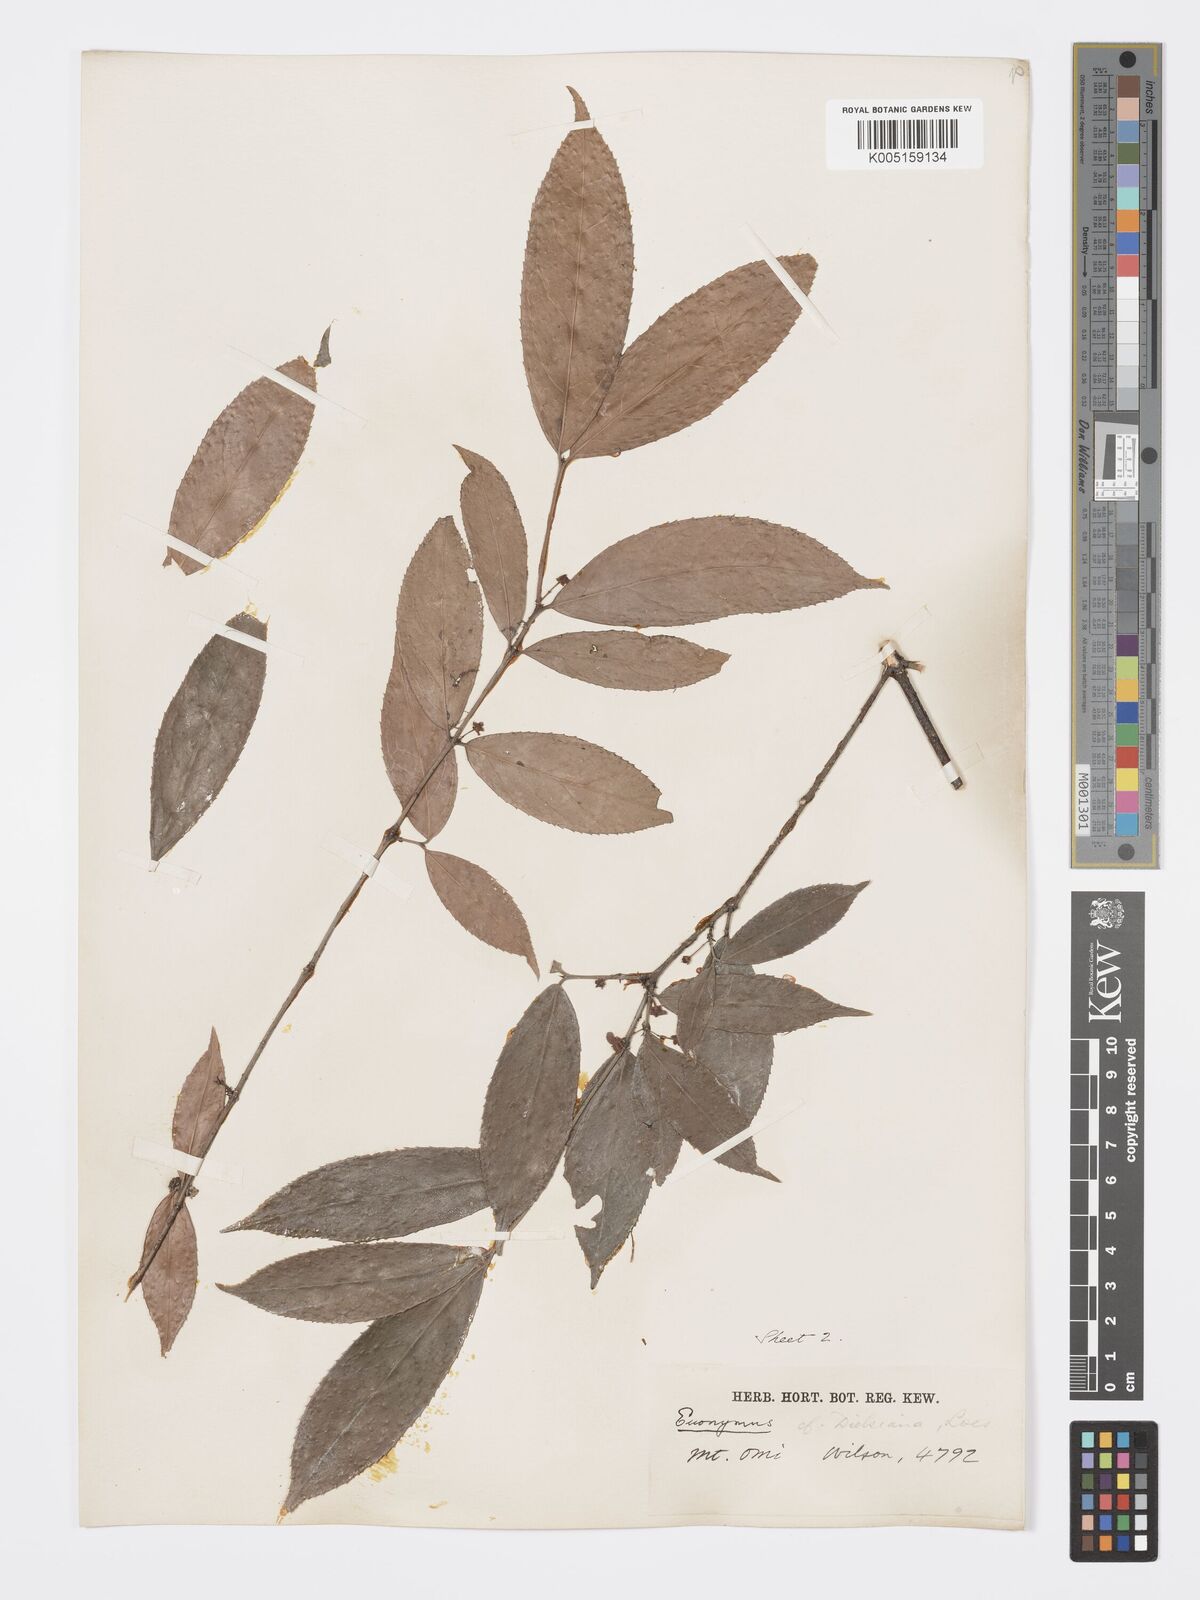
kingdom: Plantae
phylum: Tracheophyta
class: Magnoliopsida
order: Celastrales
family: Celastraceae
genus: Euonymus
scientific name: Euonymus centidens
